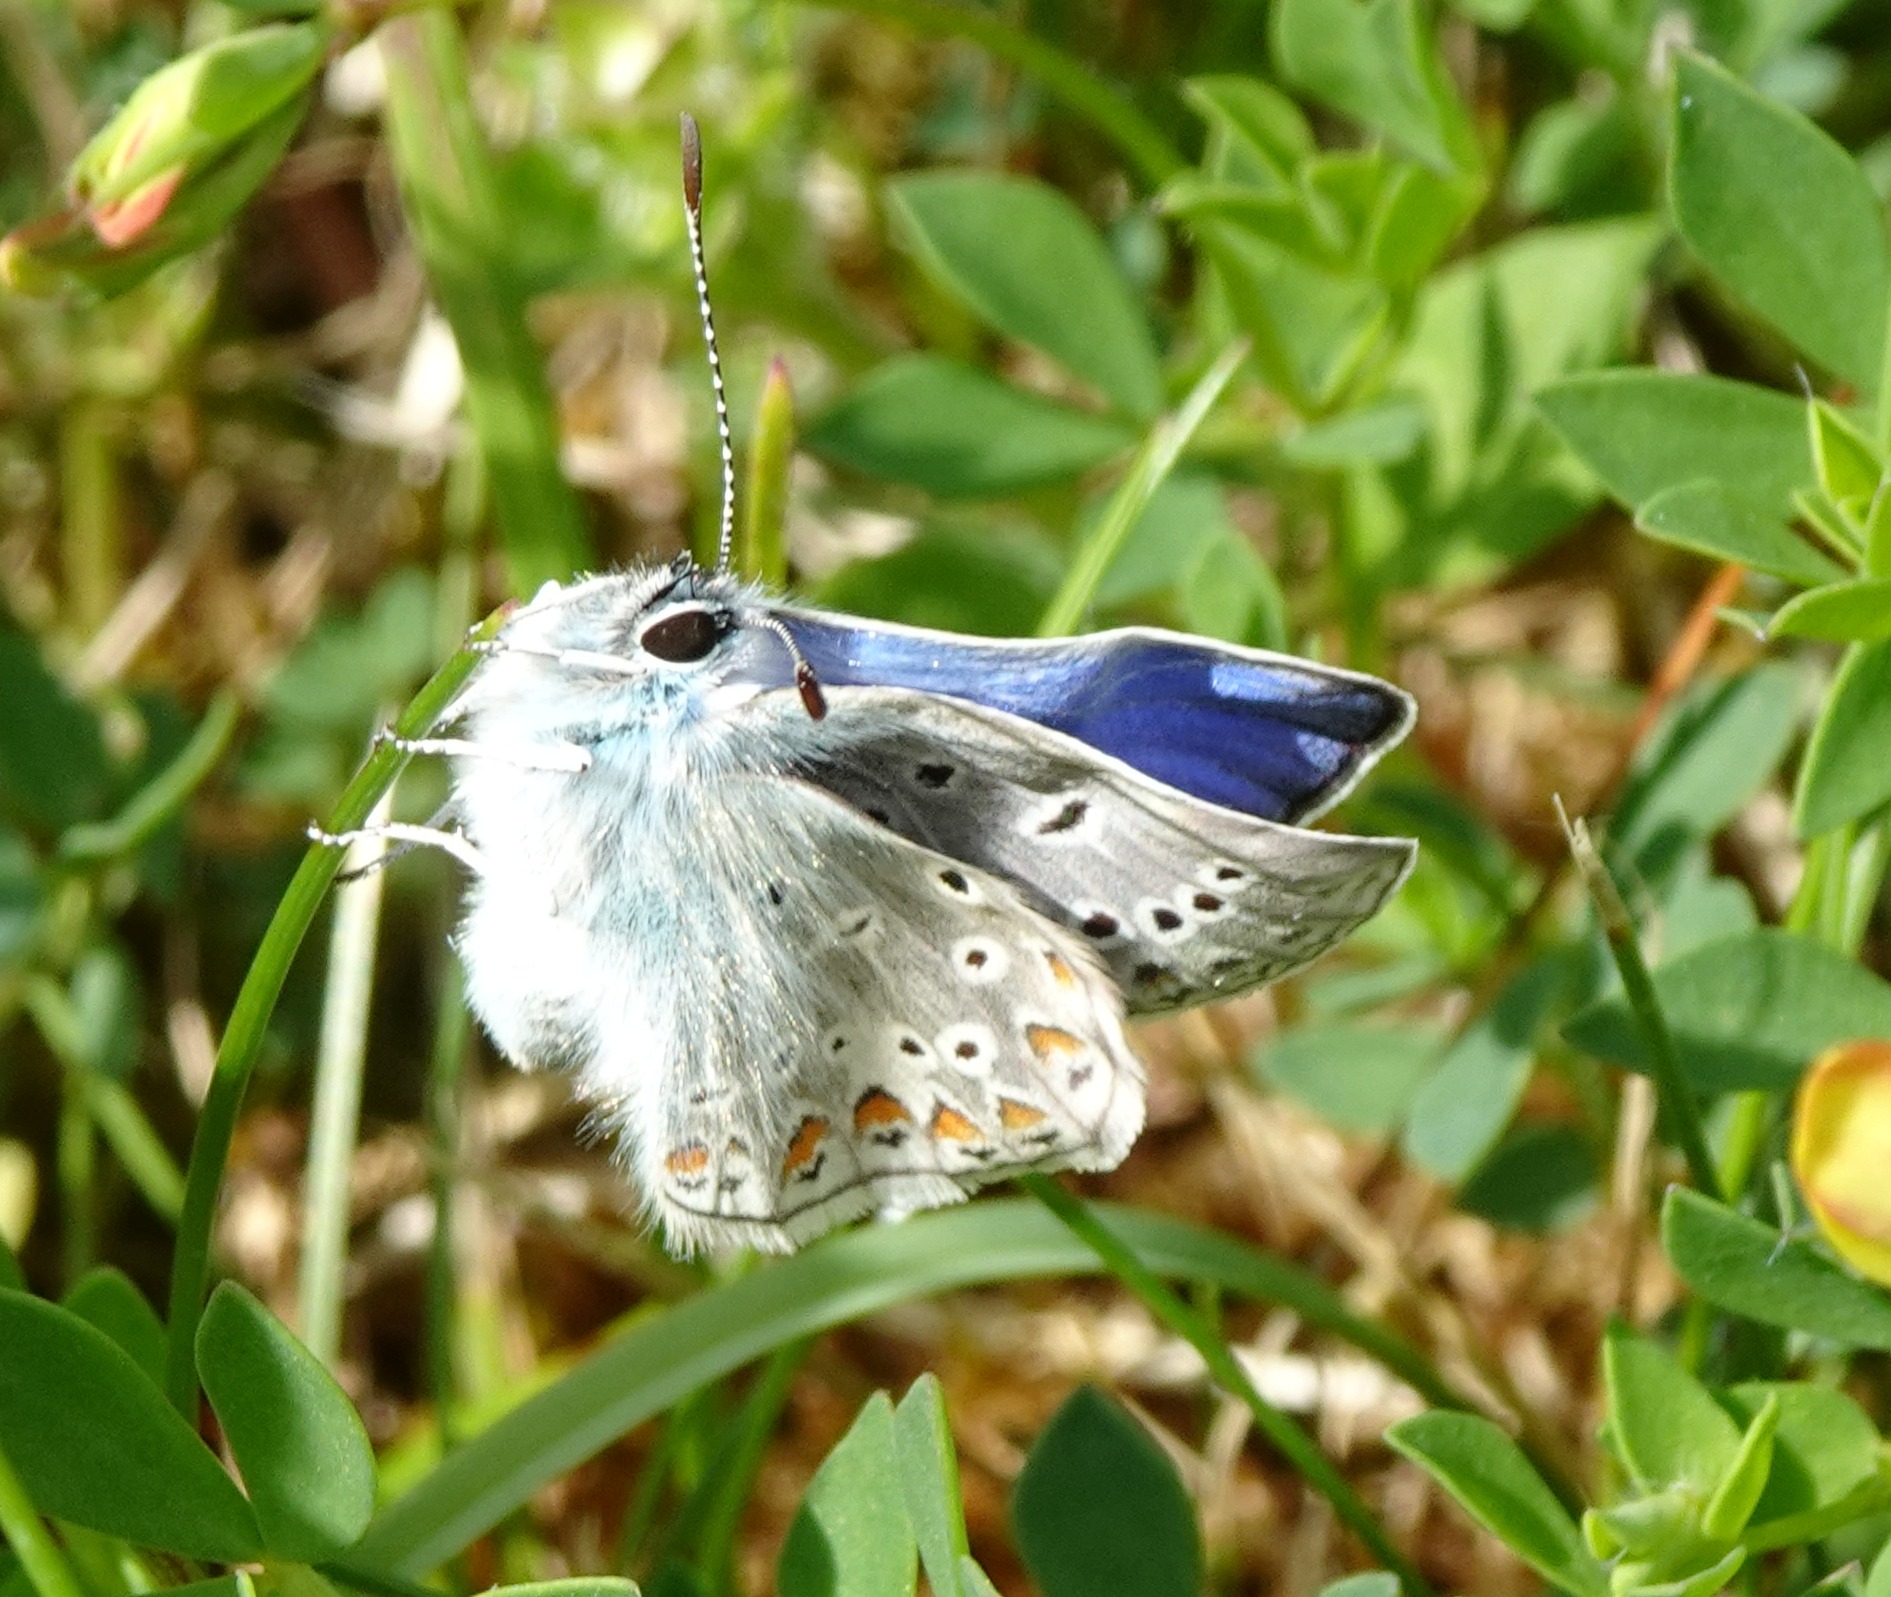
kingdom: Animalia
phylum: Arthropoda
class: Insecta
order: Lepidoptera
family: Lycaenidae
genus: Polyommatus
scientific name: Polyommatus icarus
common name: Almindelig blåfugl
